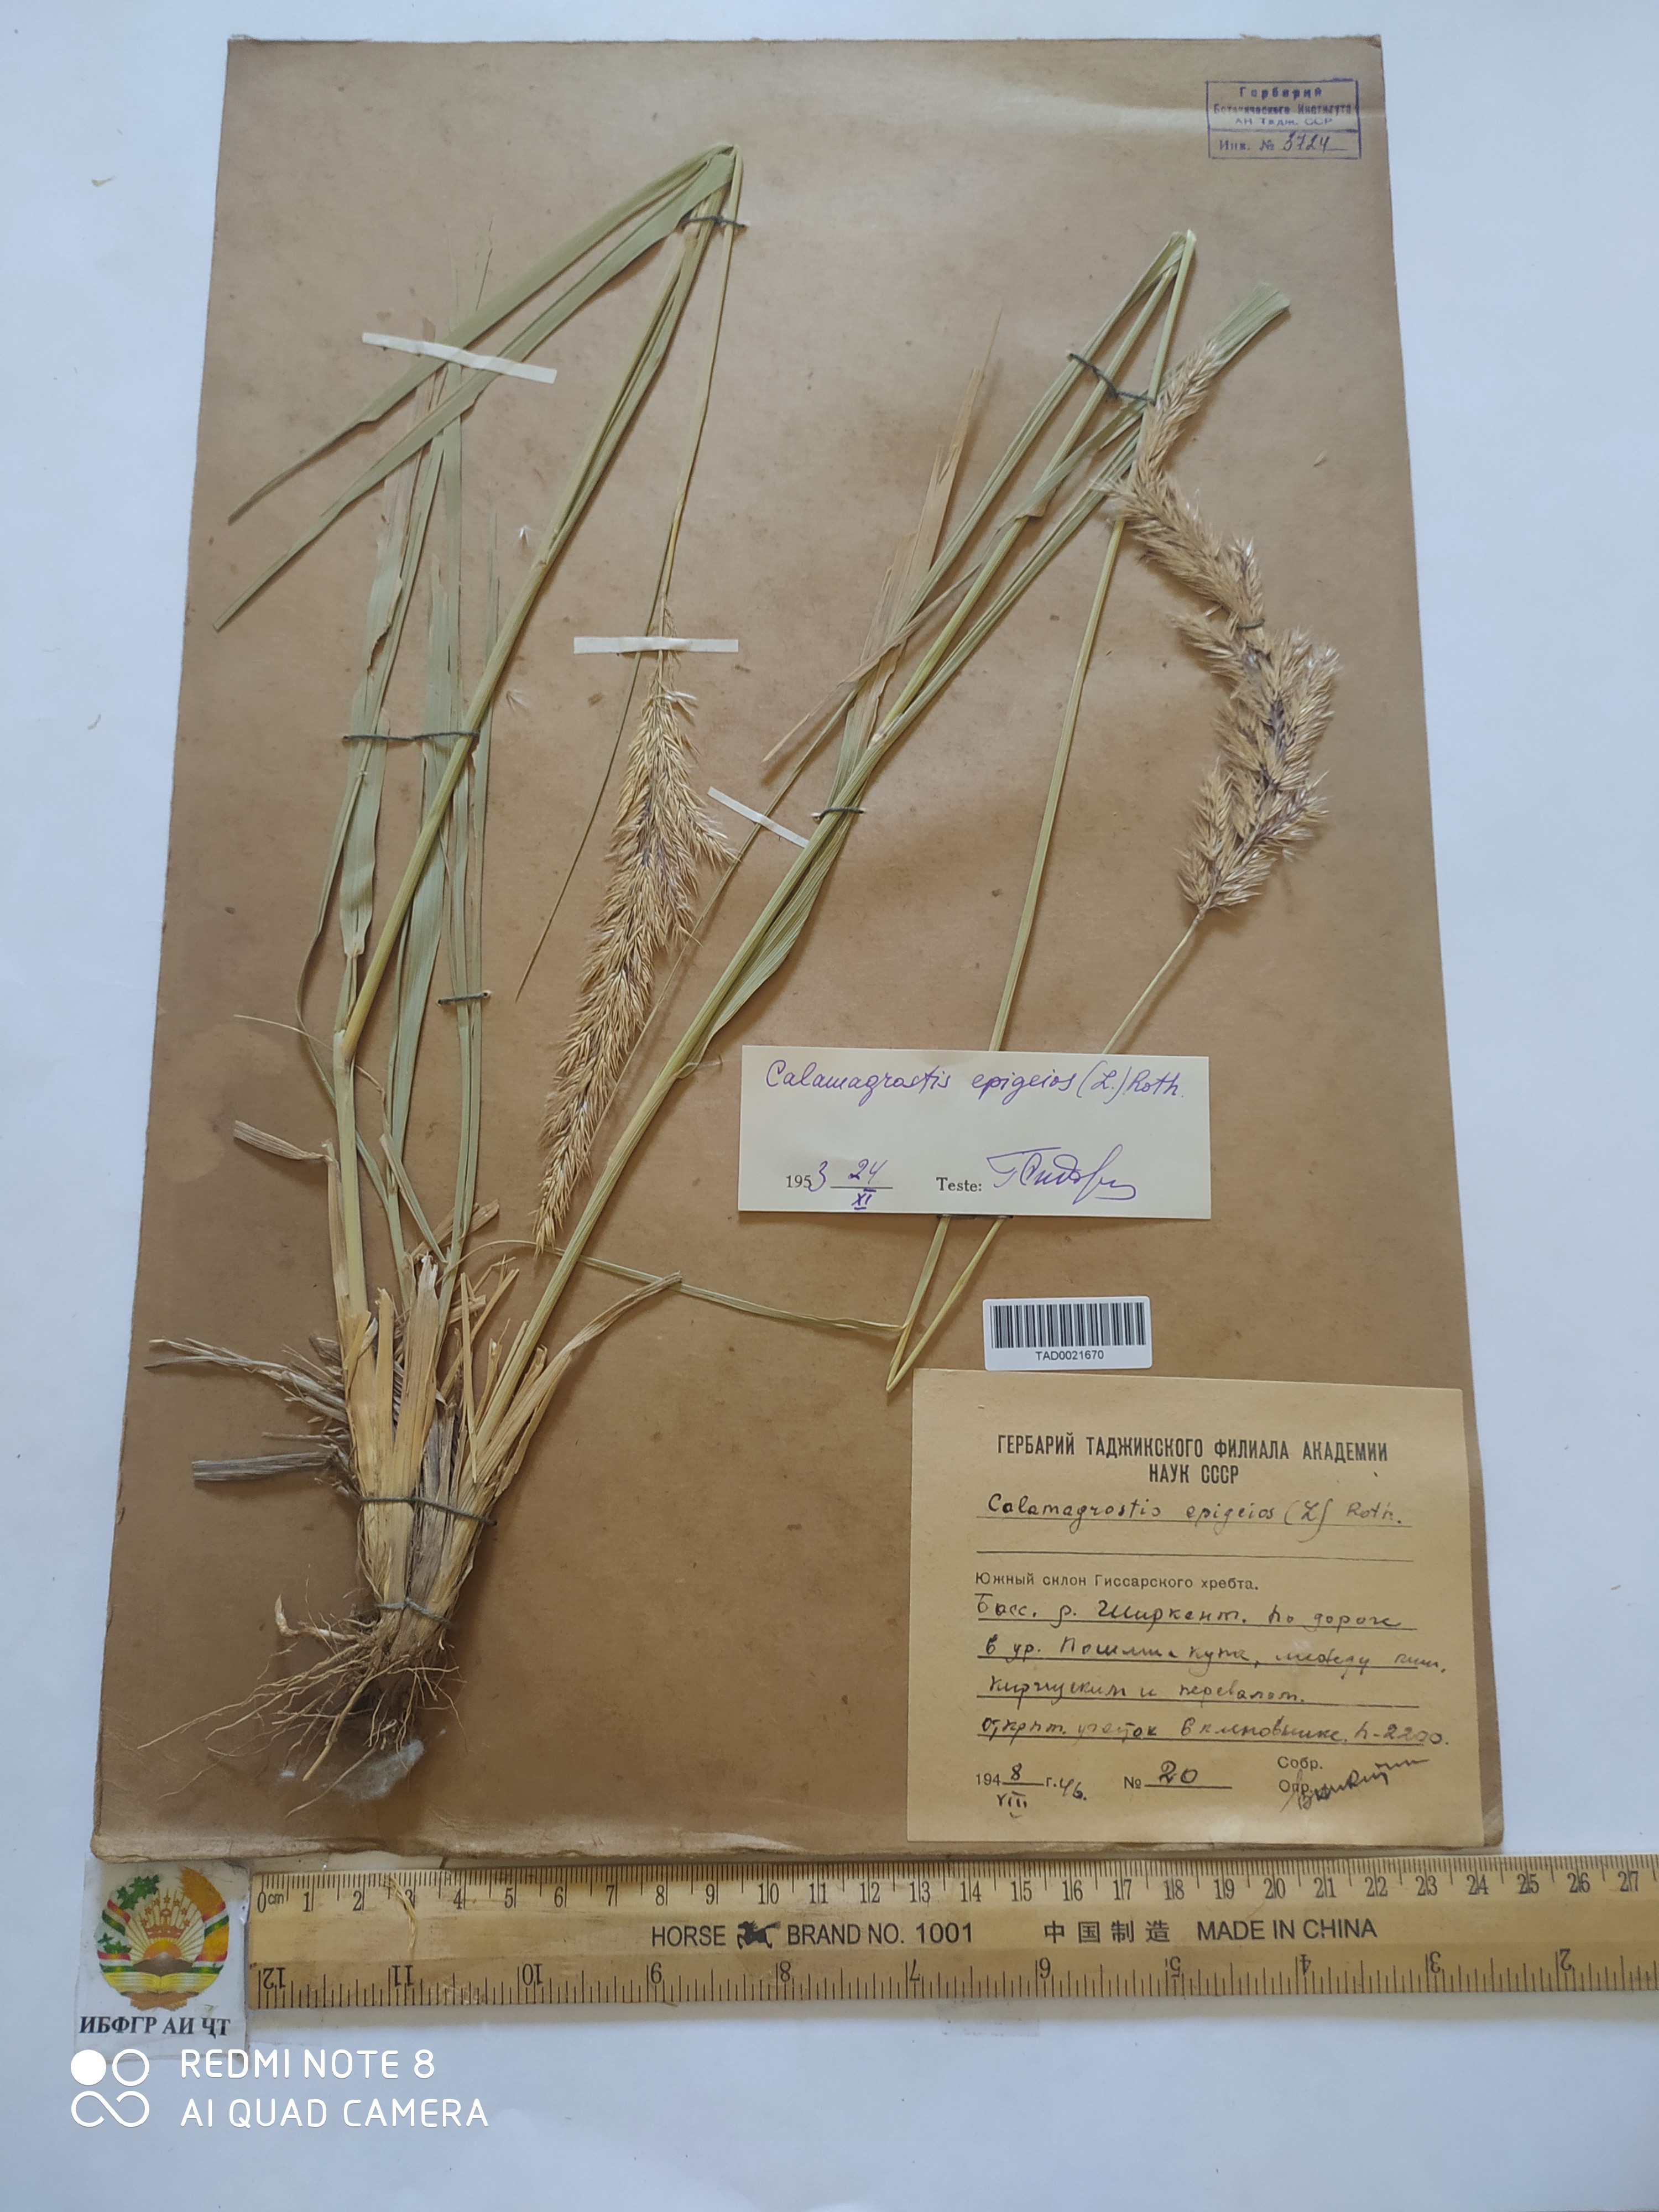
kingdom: Plantae
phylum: Tracheophyta
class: Liliopsida
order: Poales
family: Poaceae
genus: Calamagrostis
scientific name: Calamagrostis epigejos
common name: Wood small-reed
